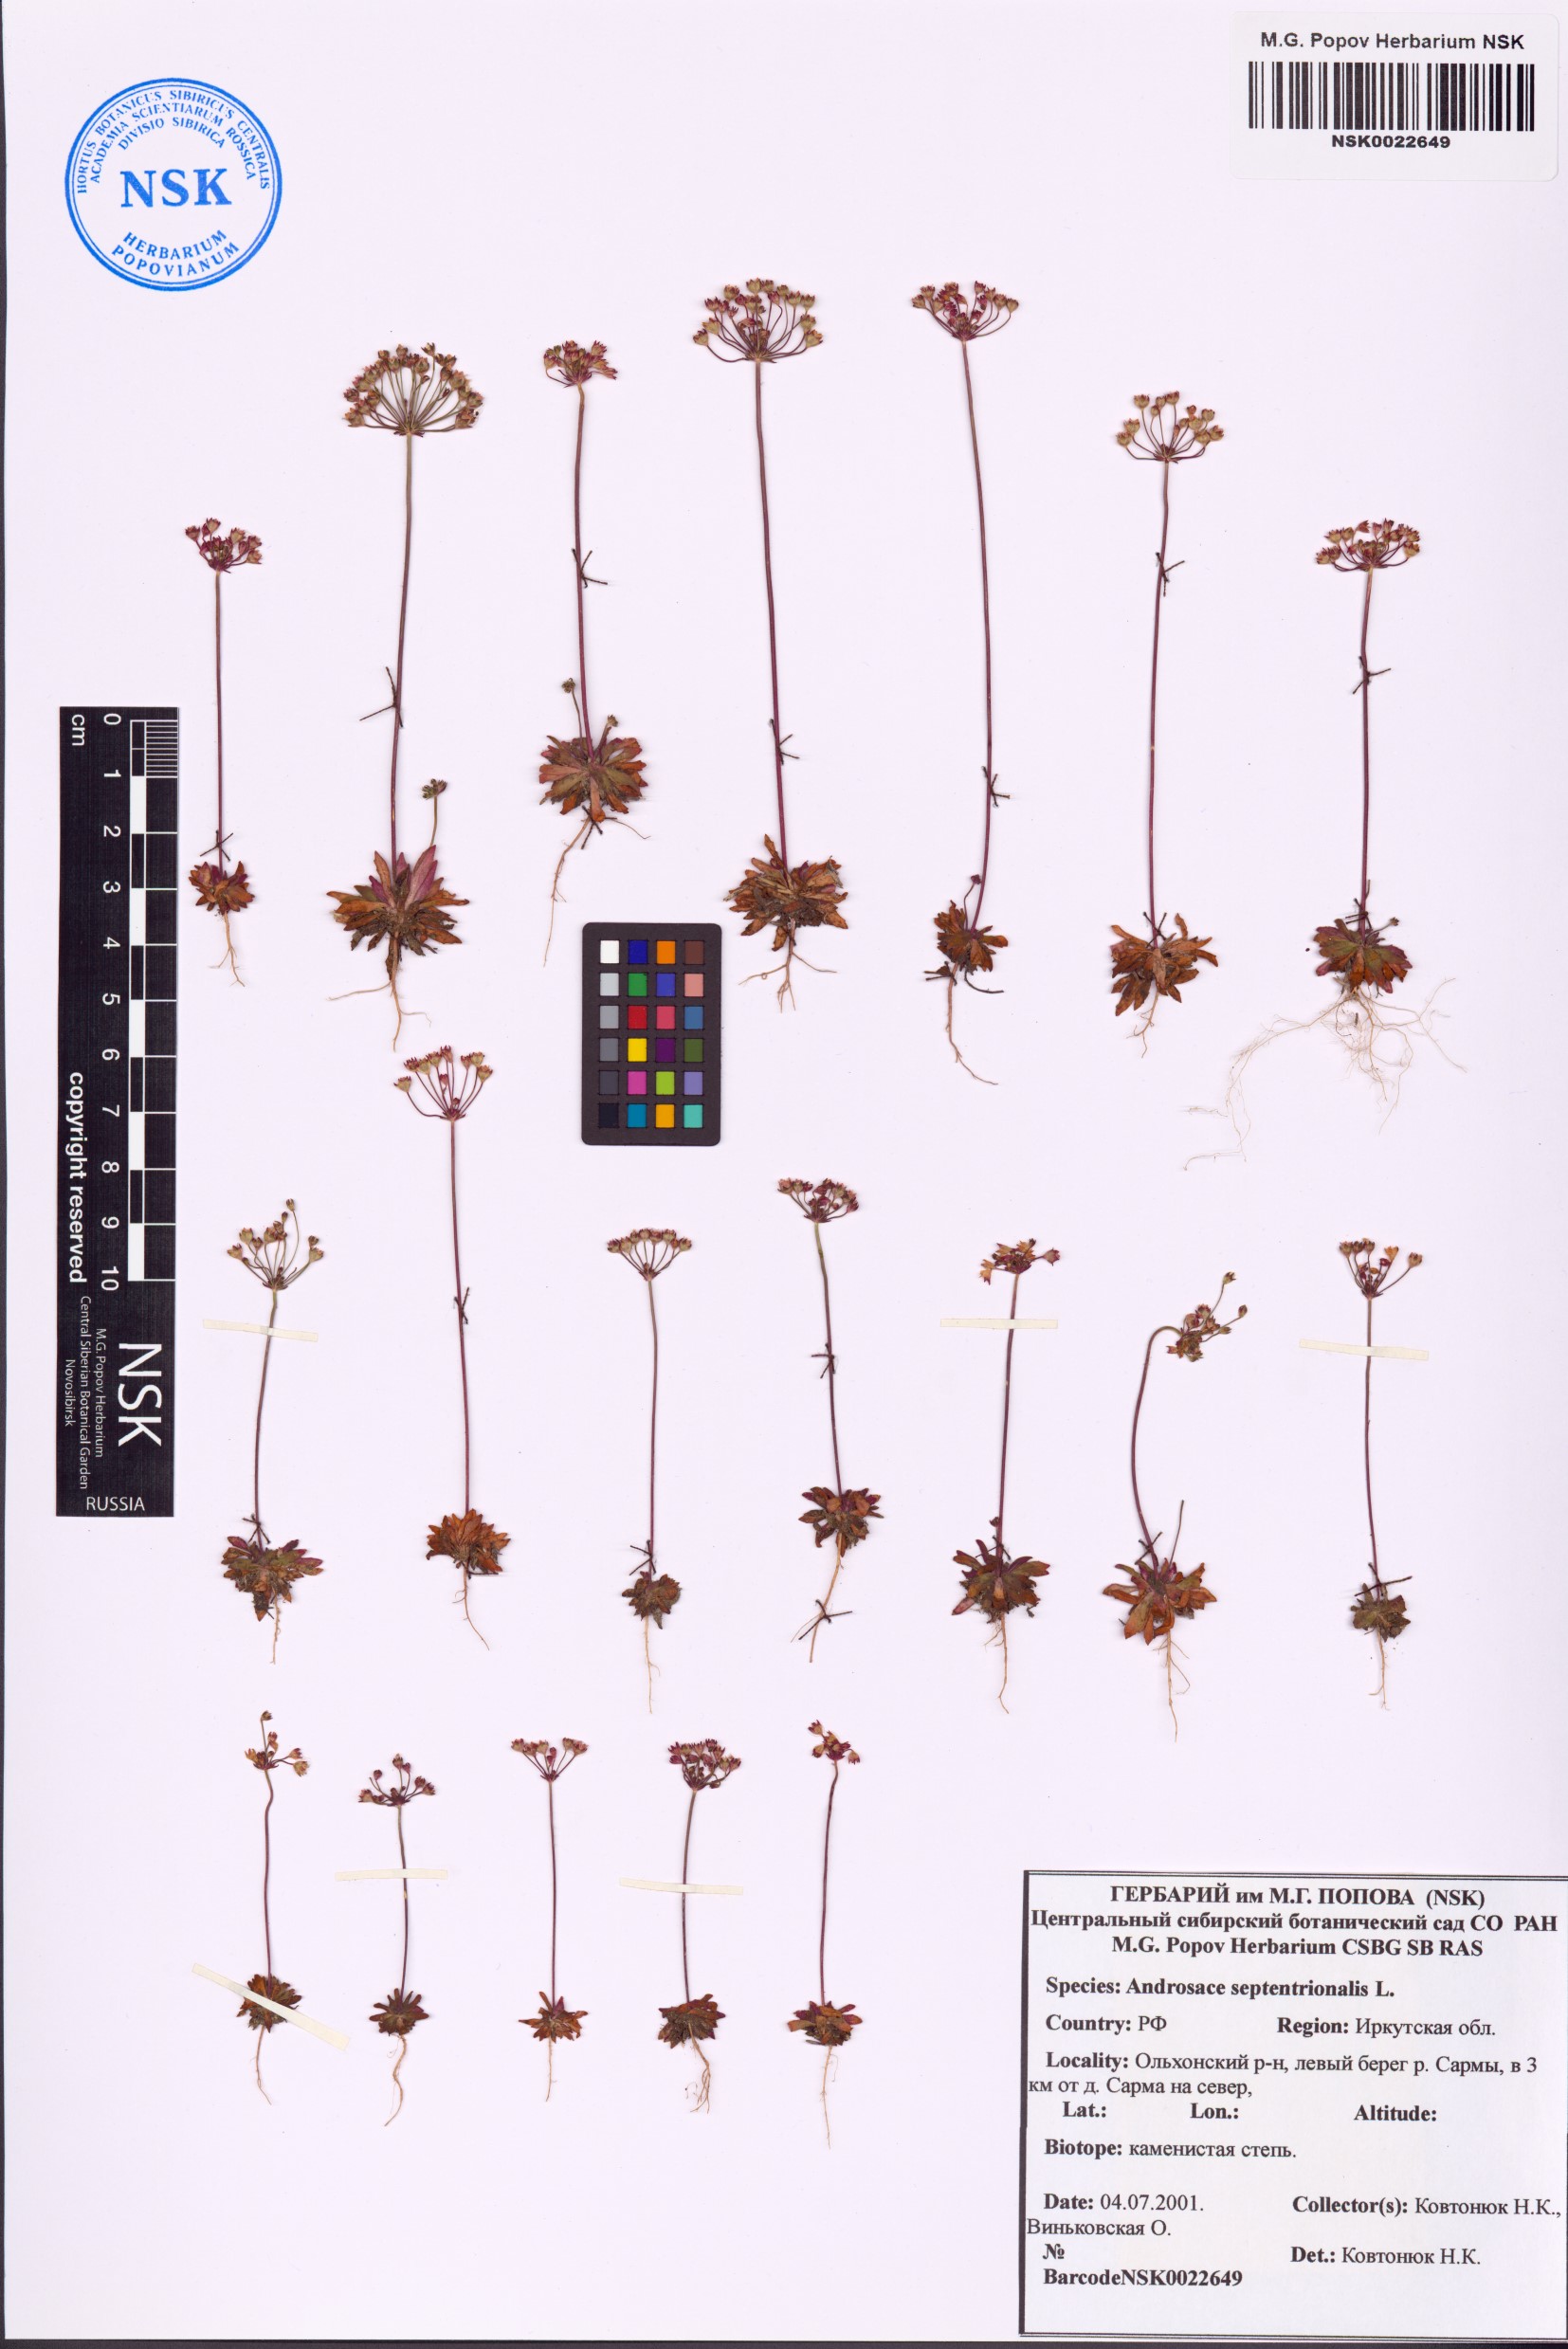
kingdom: Plantae
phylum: Tracheophyta
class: Magnoliopsida
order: Ericales
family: Primulaceae
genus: Androsace
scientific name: Androsace septentrionalis
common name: Hairy northern fairy-candelabra
